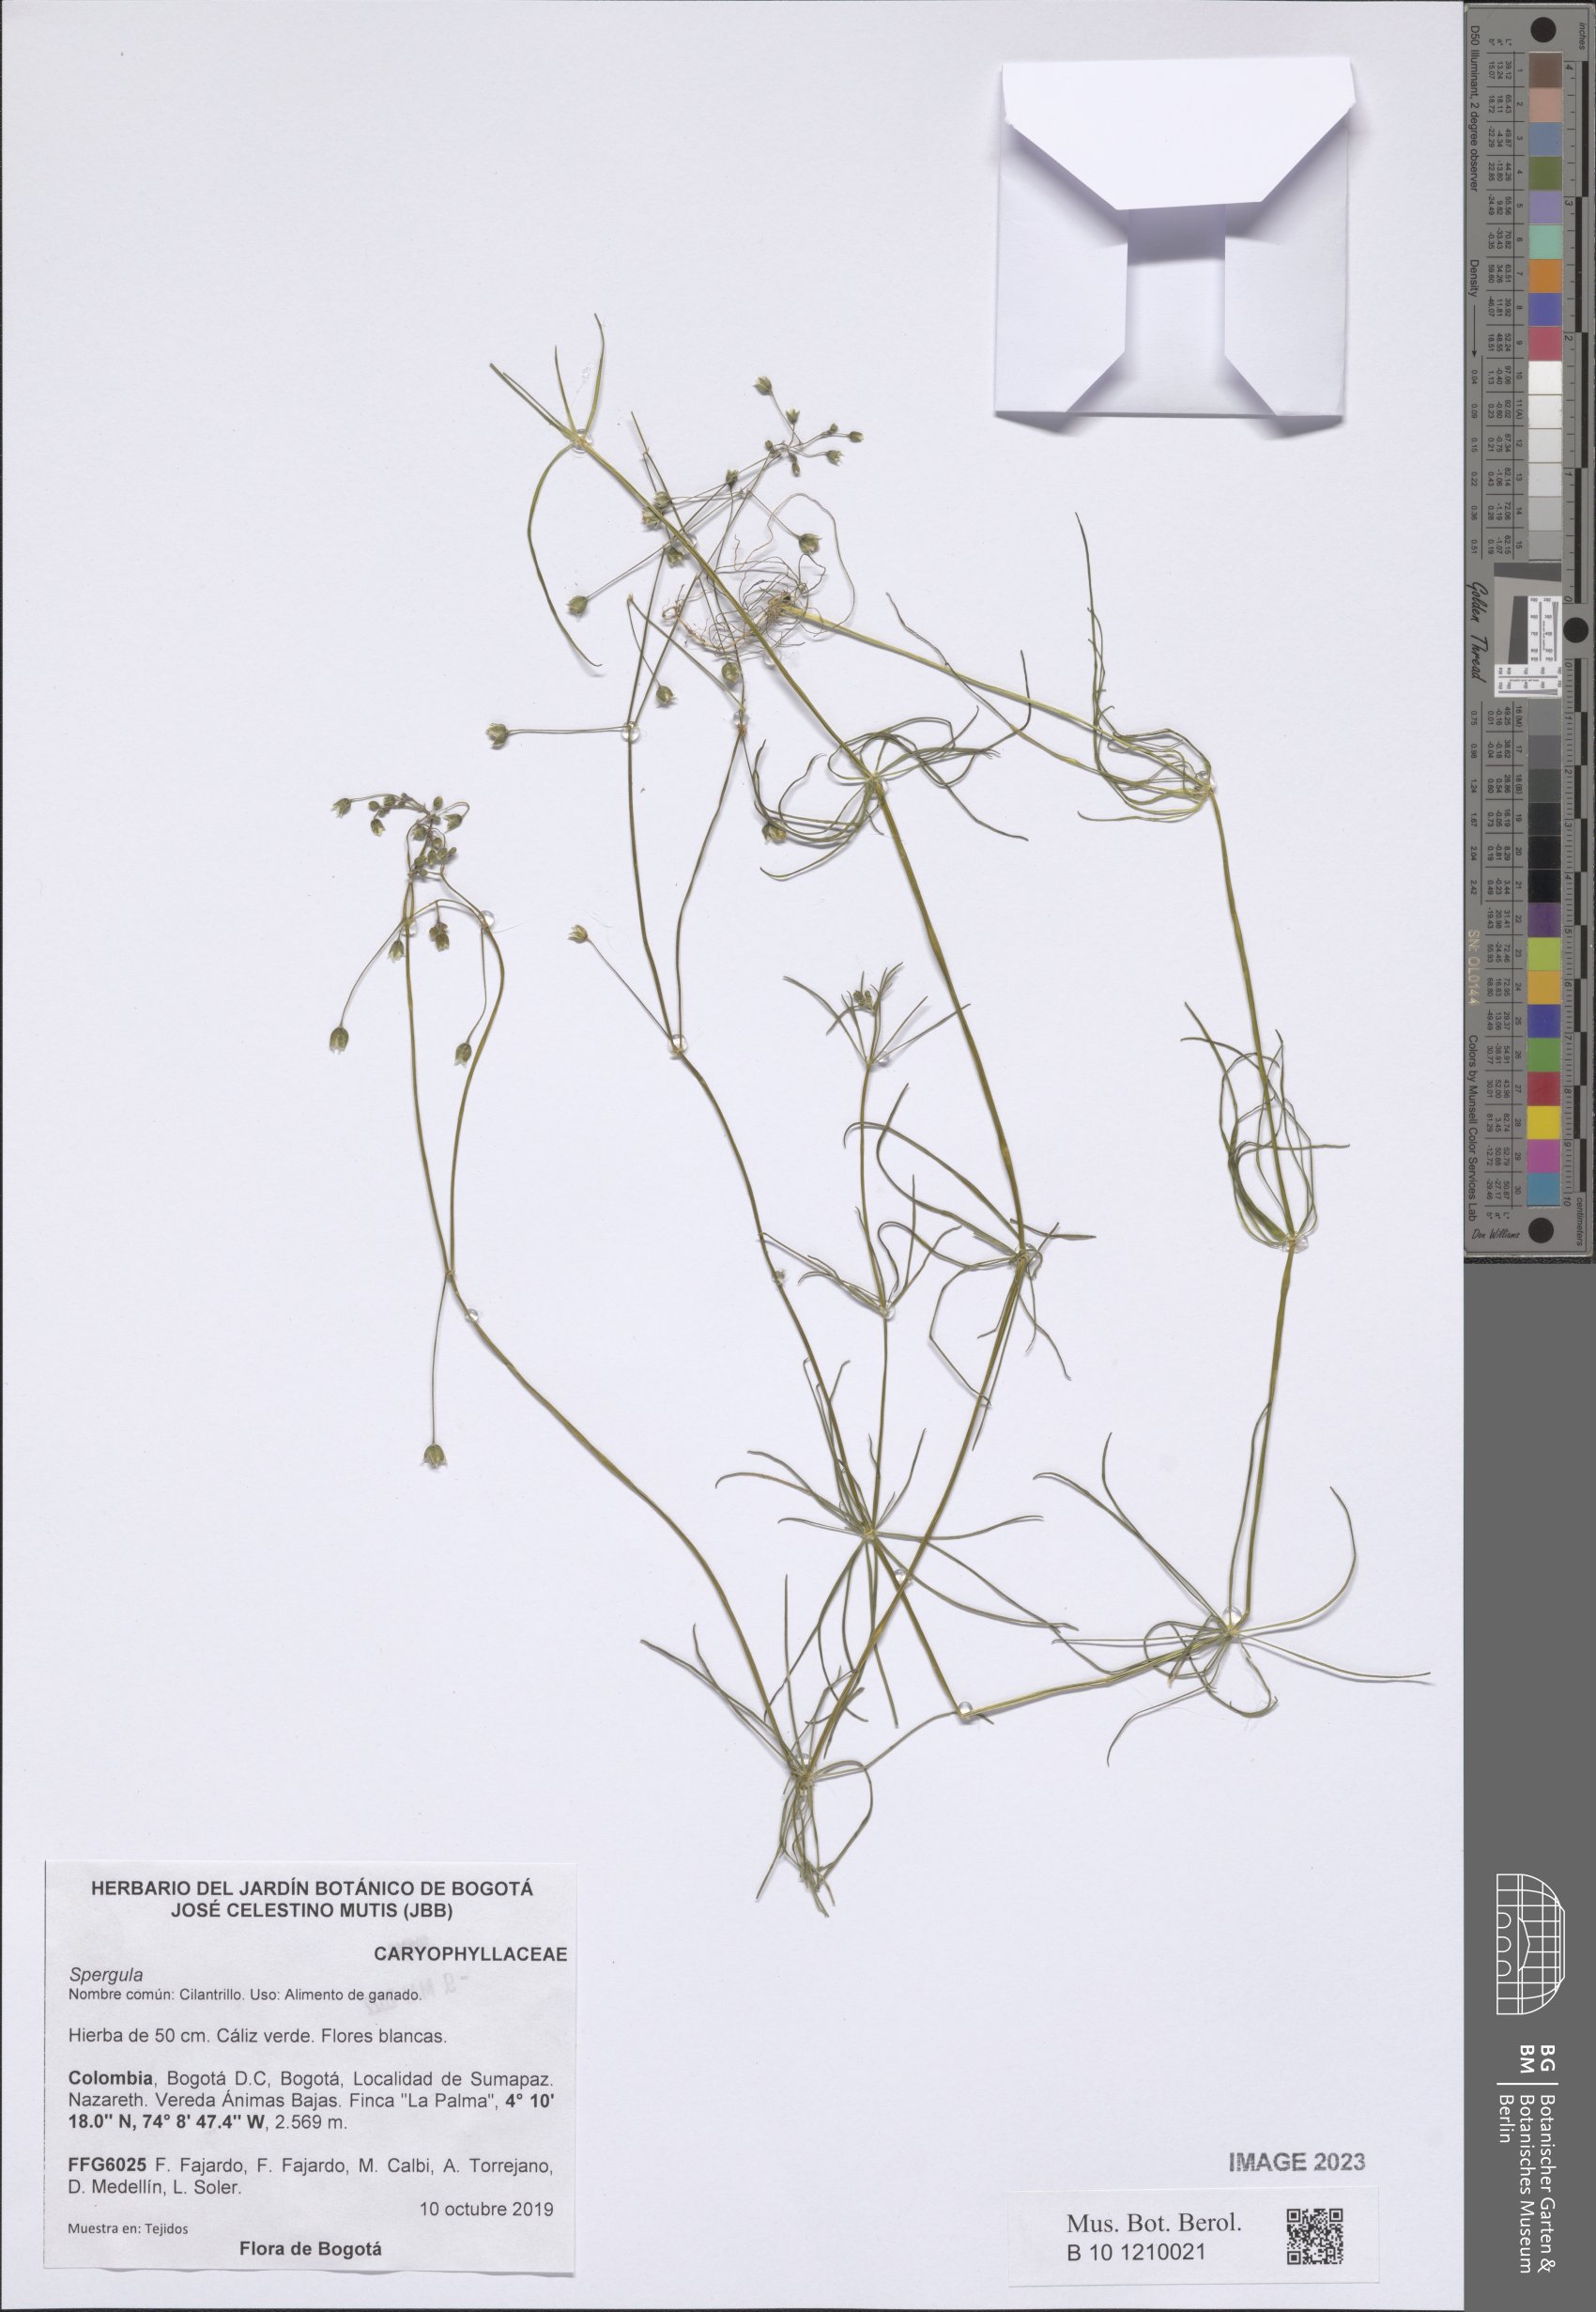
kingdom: Plantae
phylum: Tracheophyta
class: Magnoliopsida
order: Caryophyllales
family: Caryophyllaceae
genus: Spergula
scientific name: Spergula
